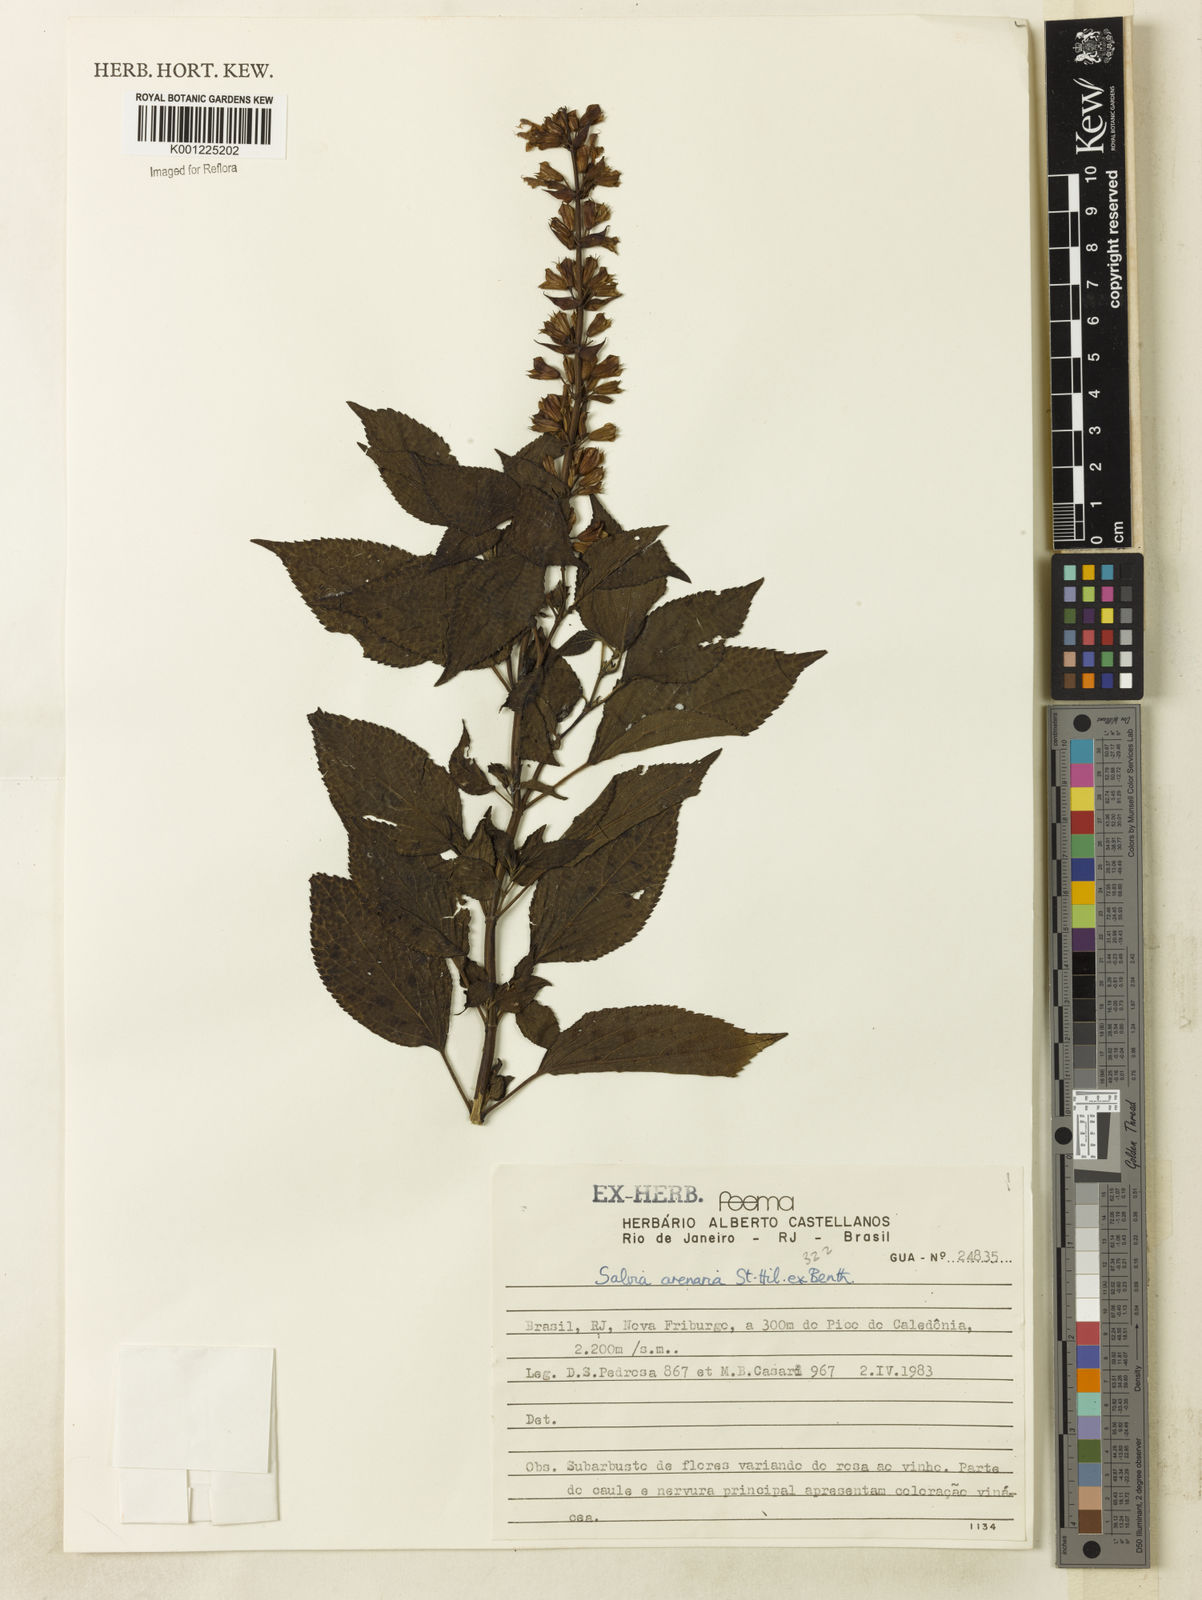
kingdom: Plantae
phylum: Tracheophyta
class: Magnoliopsida
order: Lamiales
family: Lamiaceae
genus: Salvia
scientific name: Salvia arenaria
